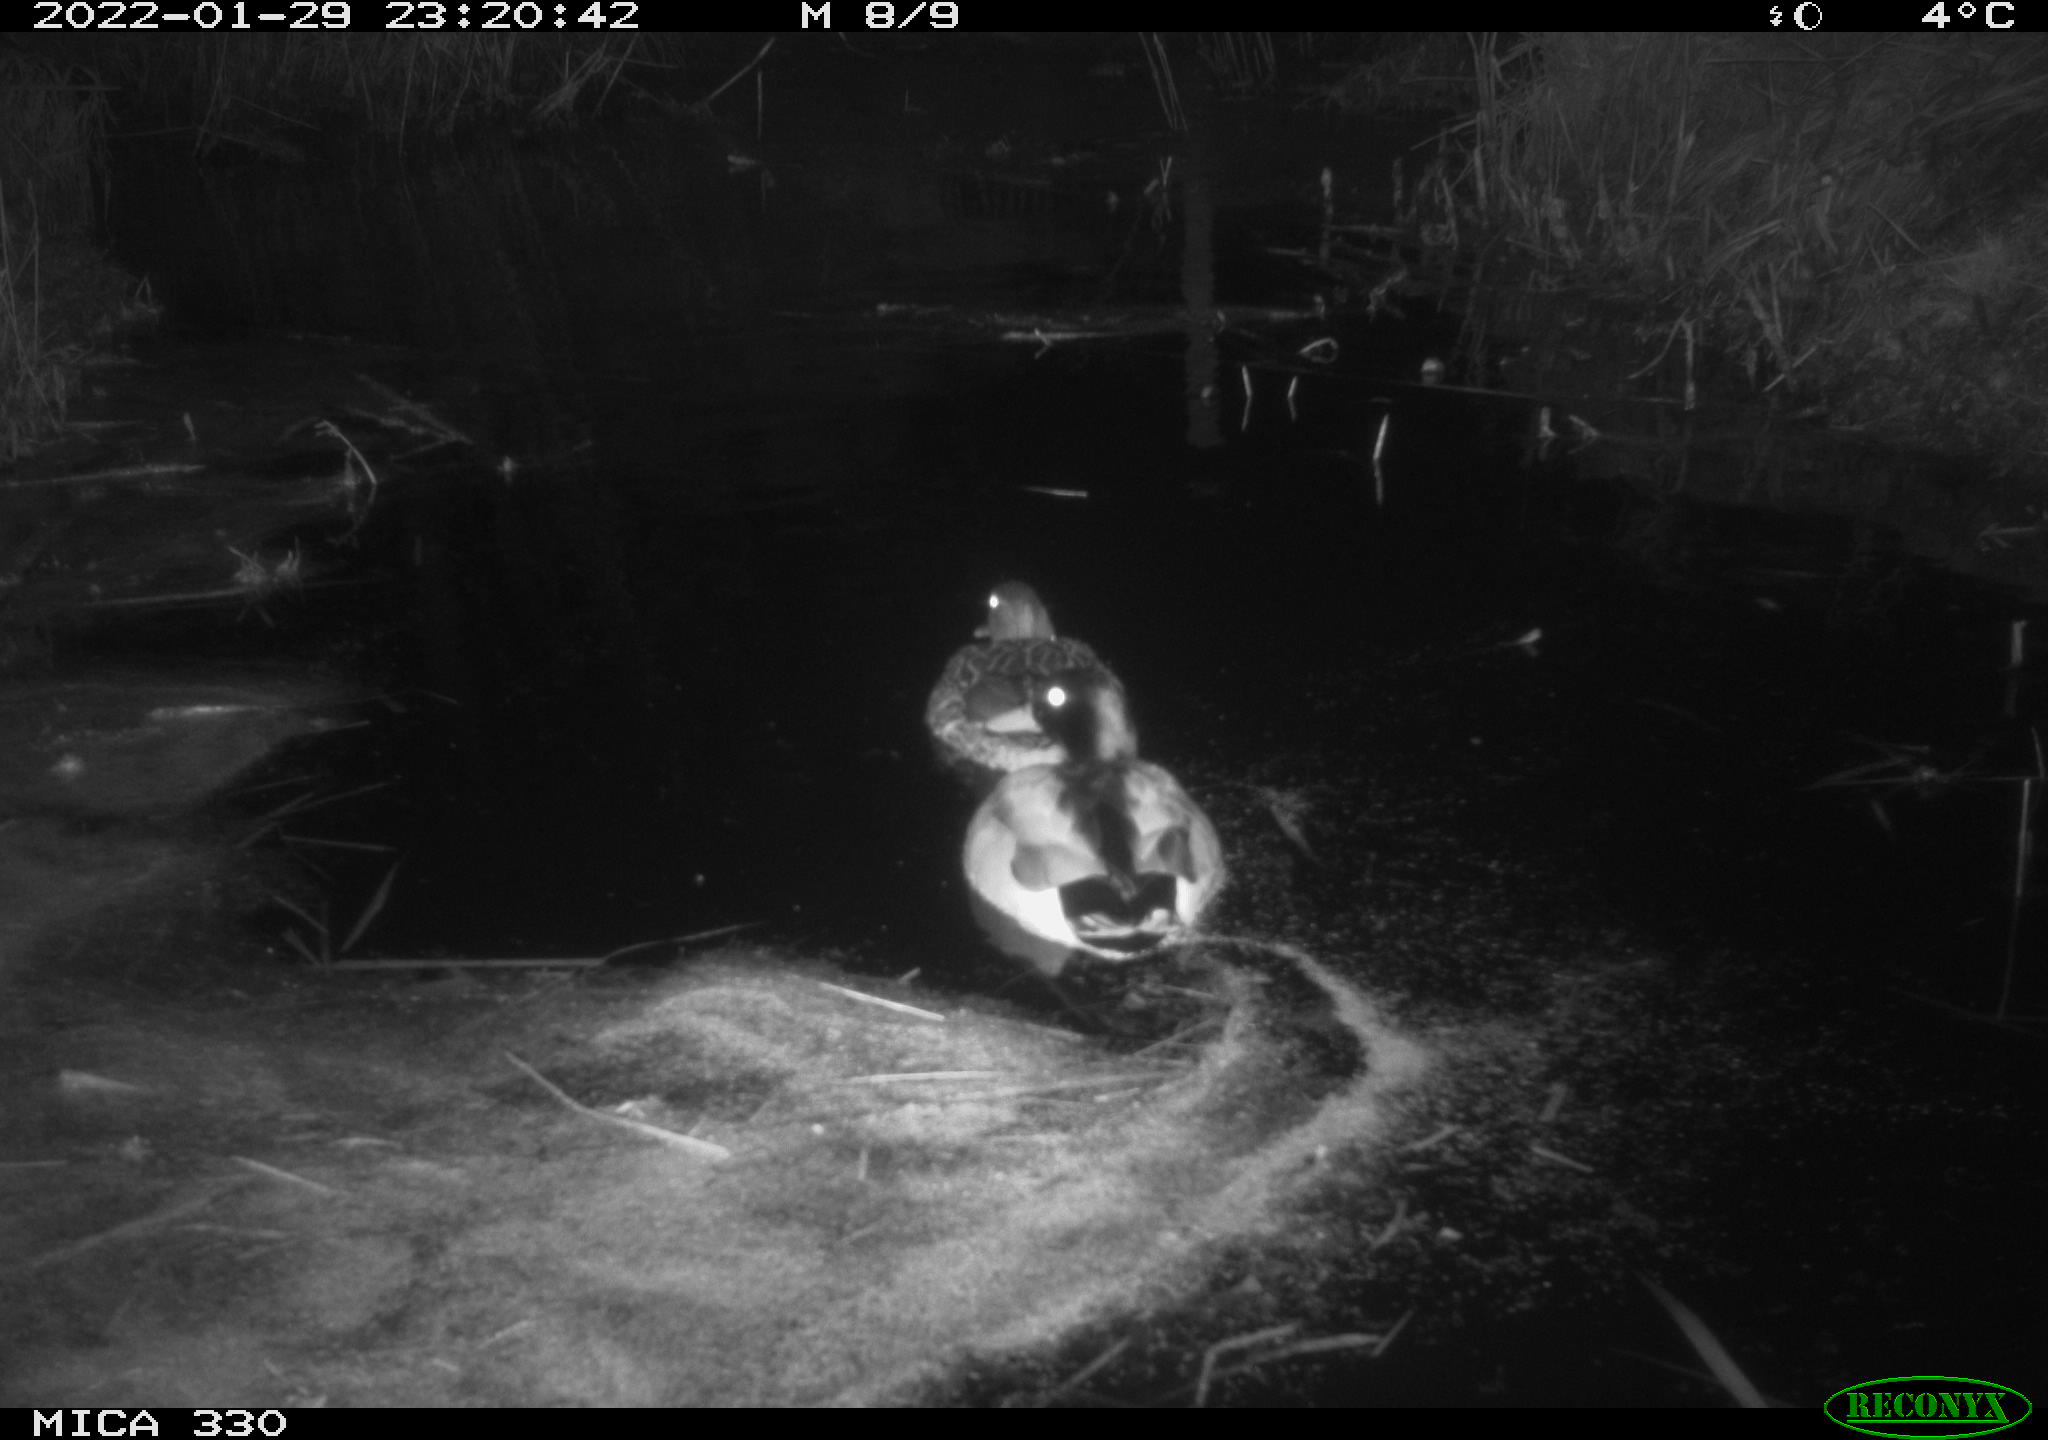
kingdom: Animalia
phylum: Chordata
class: Aves
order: Anseriformes
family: Anatidae
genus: Anas
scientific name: Anas platyrhynchos
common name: Mallard
